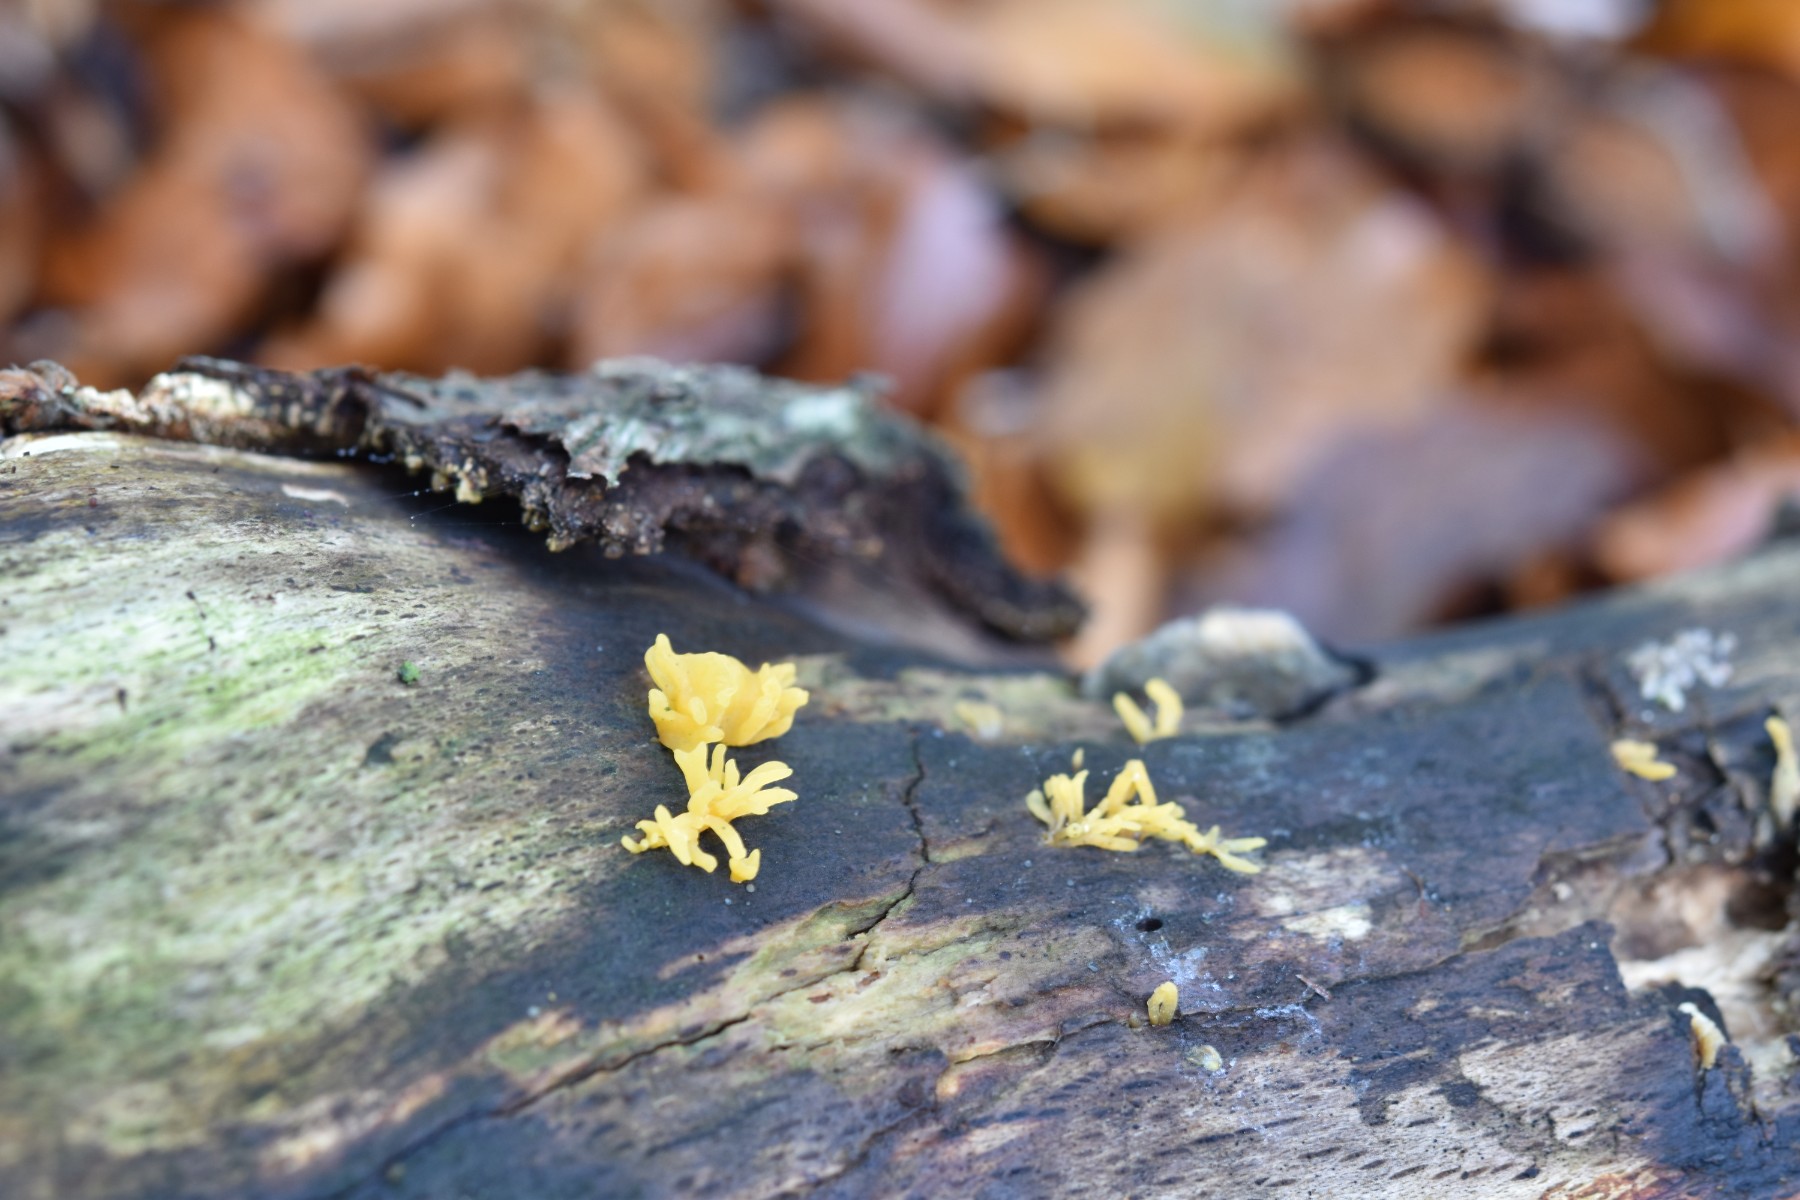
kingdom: Fungi
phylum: Basidiomycota
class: Dacrymycetes
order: Dacrymycetales
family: Dacrymycetaceae
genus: Calocera
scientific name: Calocera cornea
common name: liden guldgaffel
